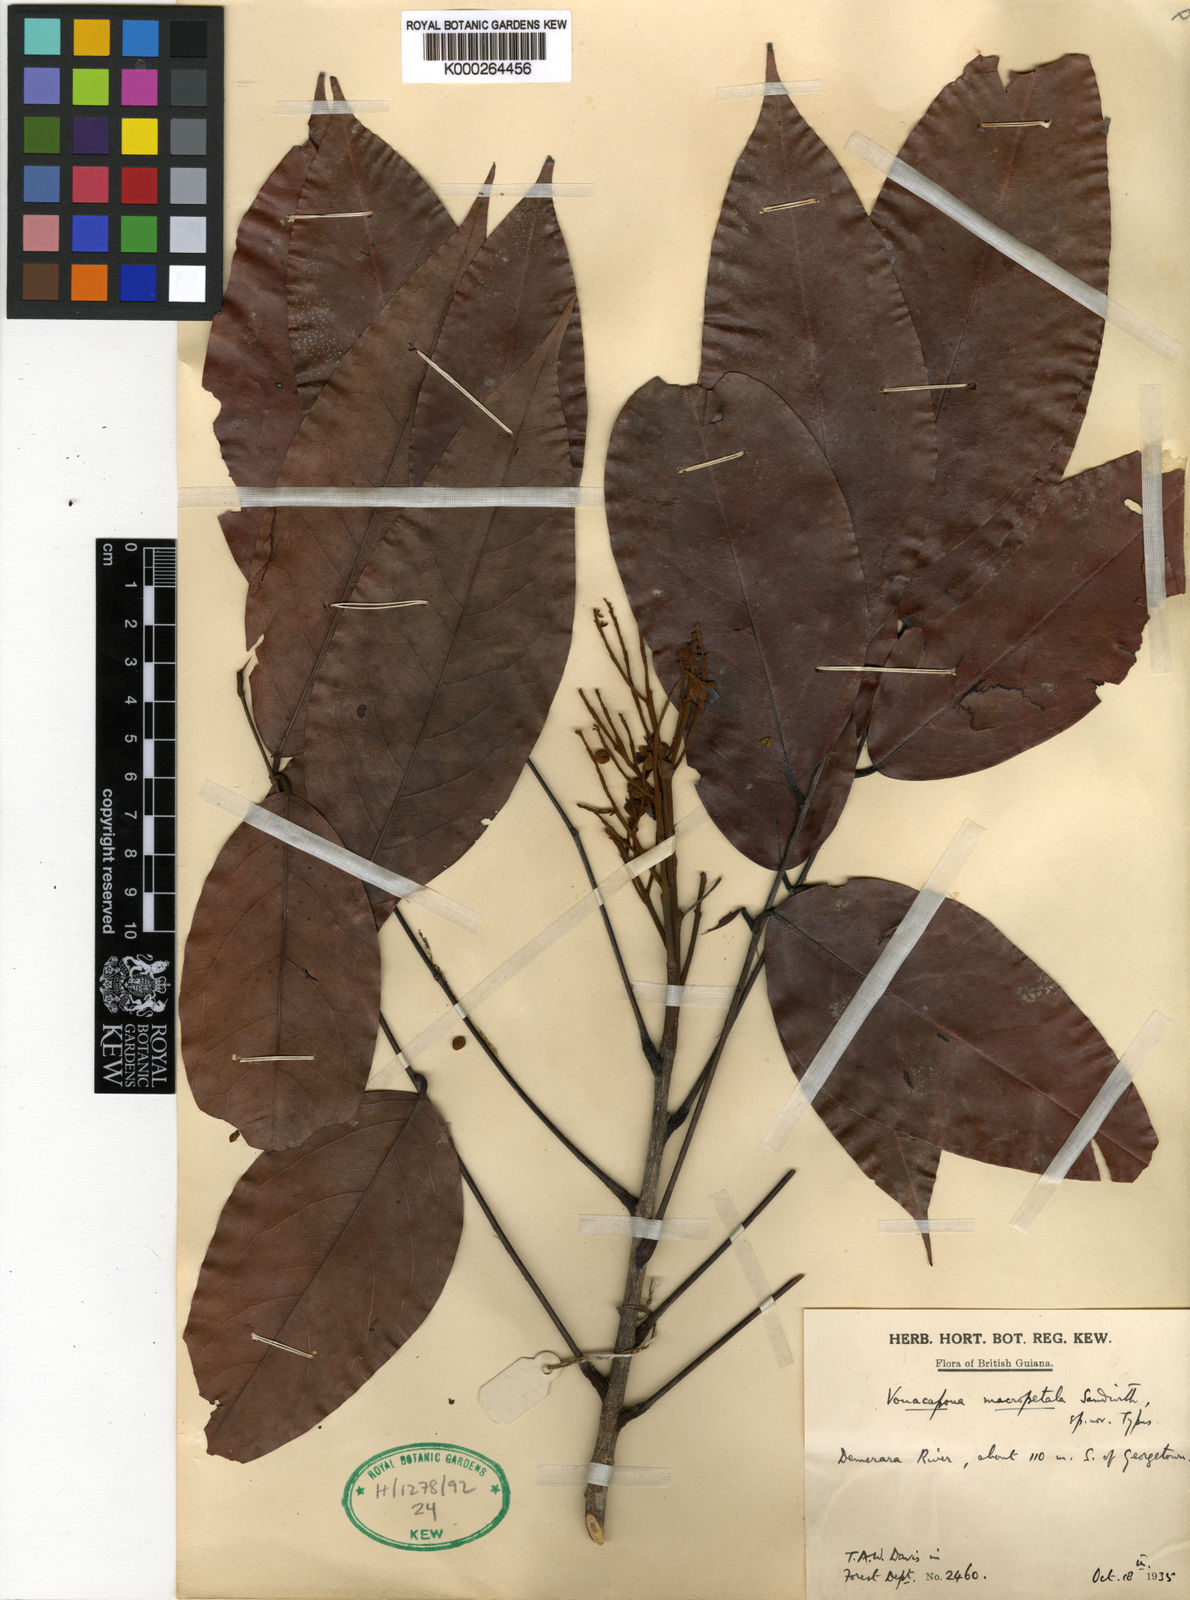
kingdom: Plantae
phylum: Tracheophyta
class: Magnoliopsida
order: Fabales
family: Fabaceae
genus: Vouacapoua
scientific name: Vouacapoua macropetala
